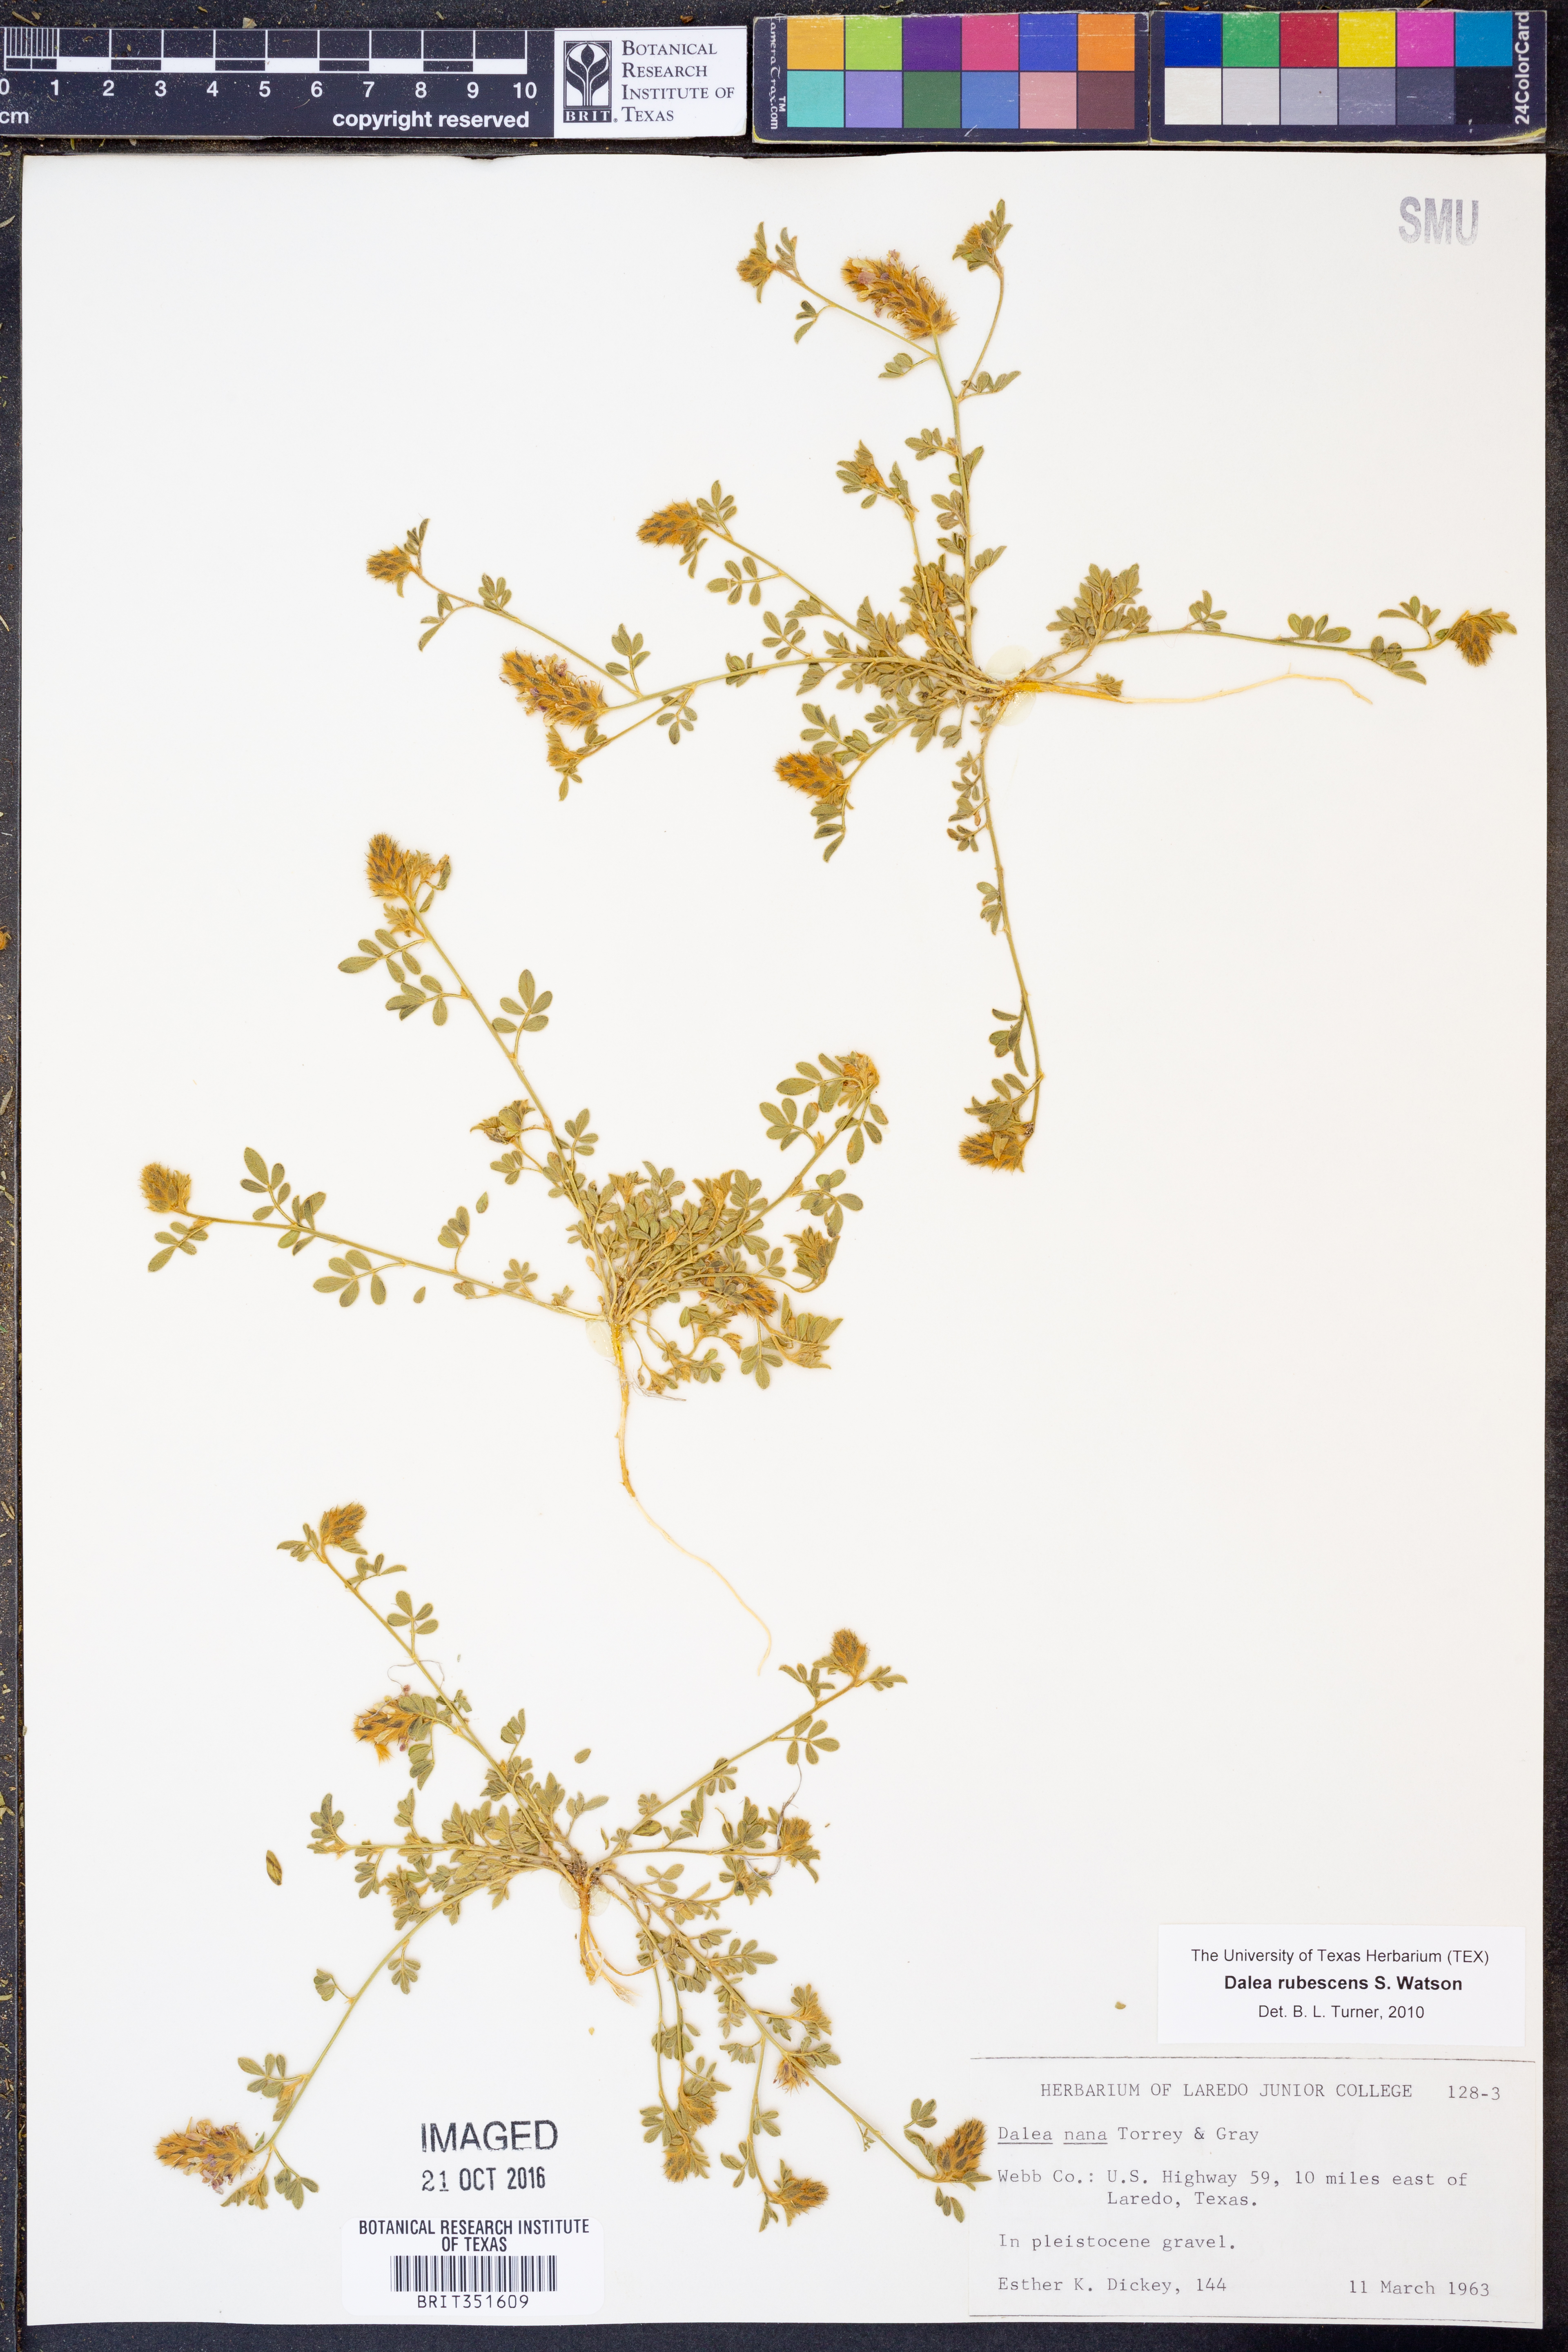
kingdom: Plantae
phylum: Tracheophyta
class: Magnoliopsida
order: Fabales
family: Fabaceae
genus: Dalea
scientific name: Dalea rubescens
